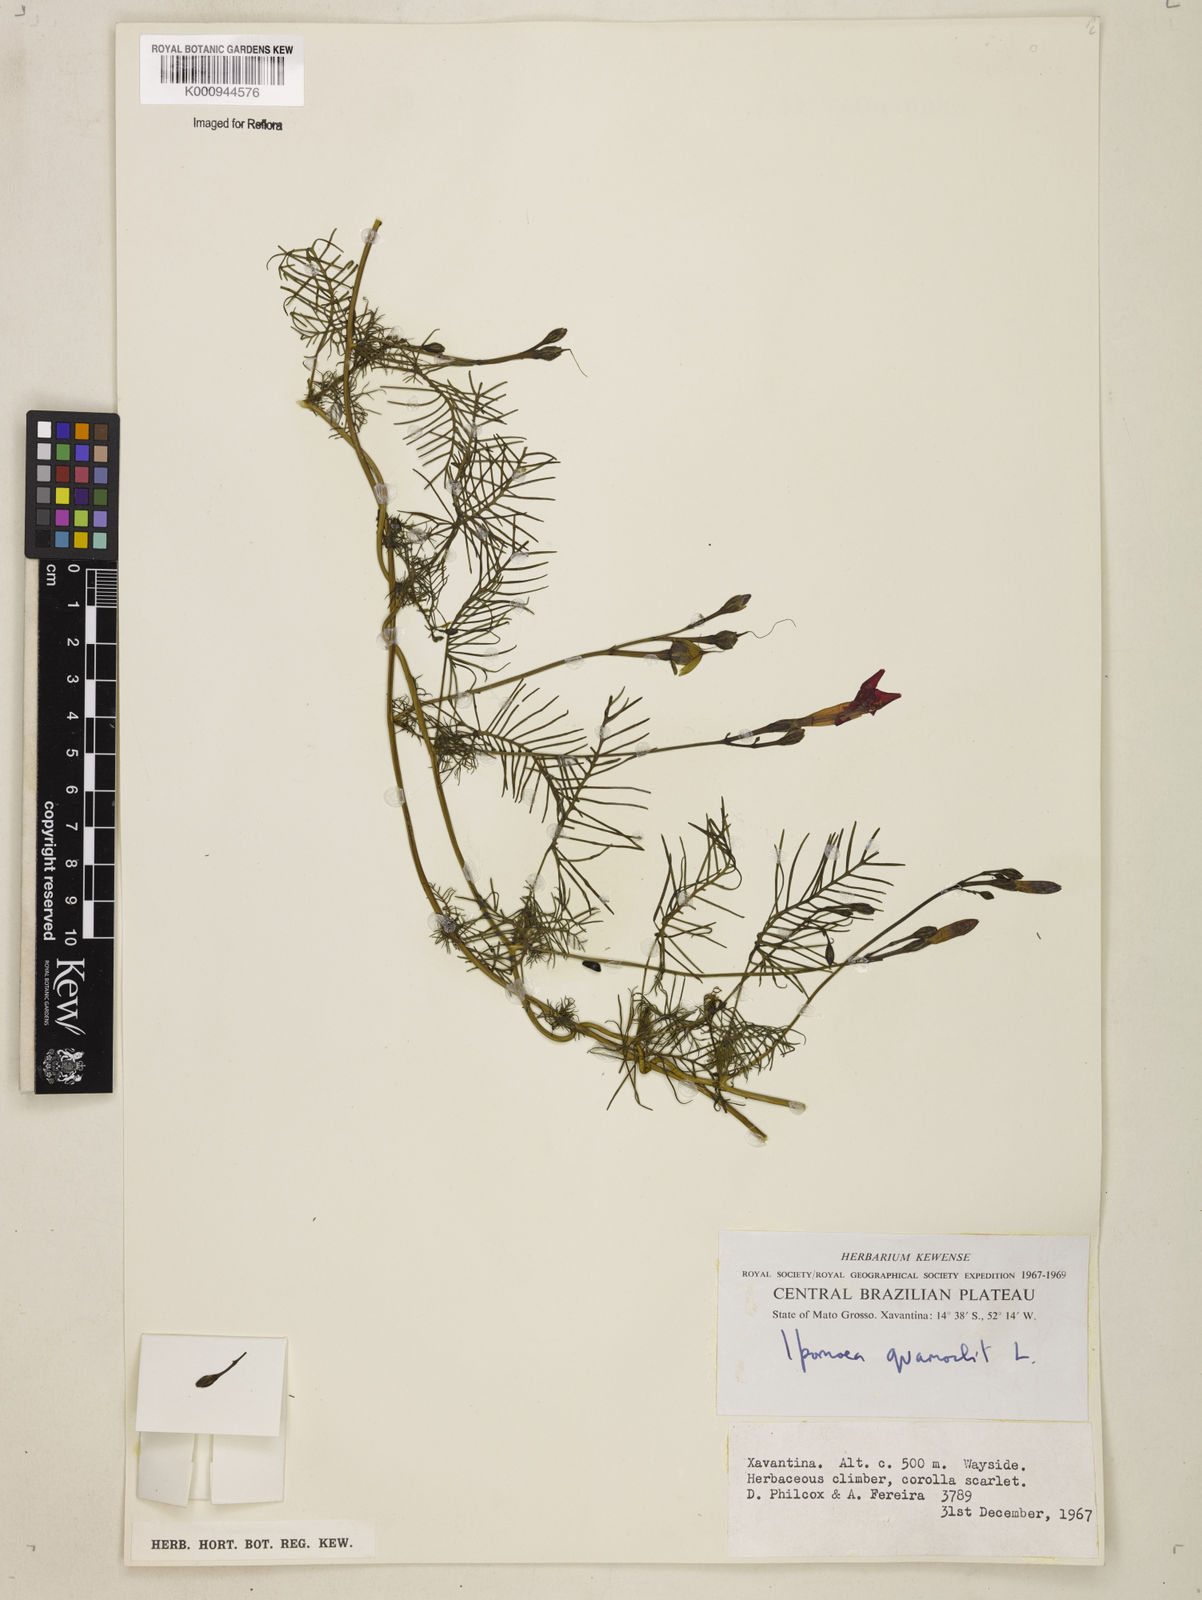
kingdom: Plantae
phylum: Tracheophyta
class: Magnoliopsida
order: Solanales
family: Convolvulaceae
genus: Ipomoea
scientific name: Ipomoea quamoclit
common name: Cypress vine
